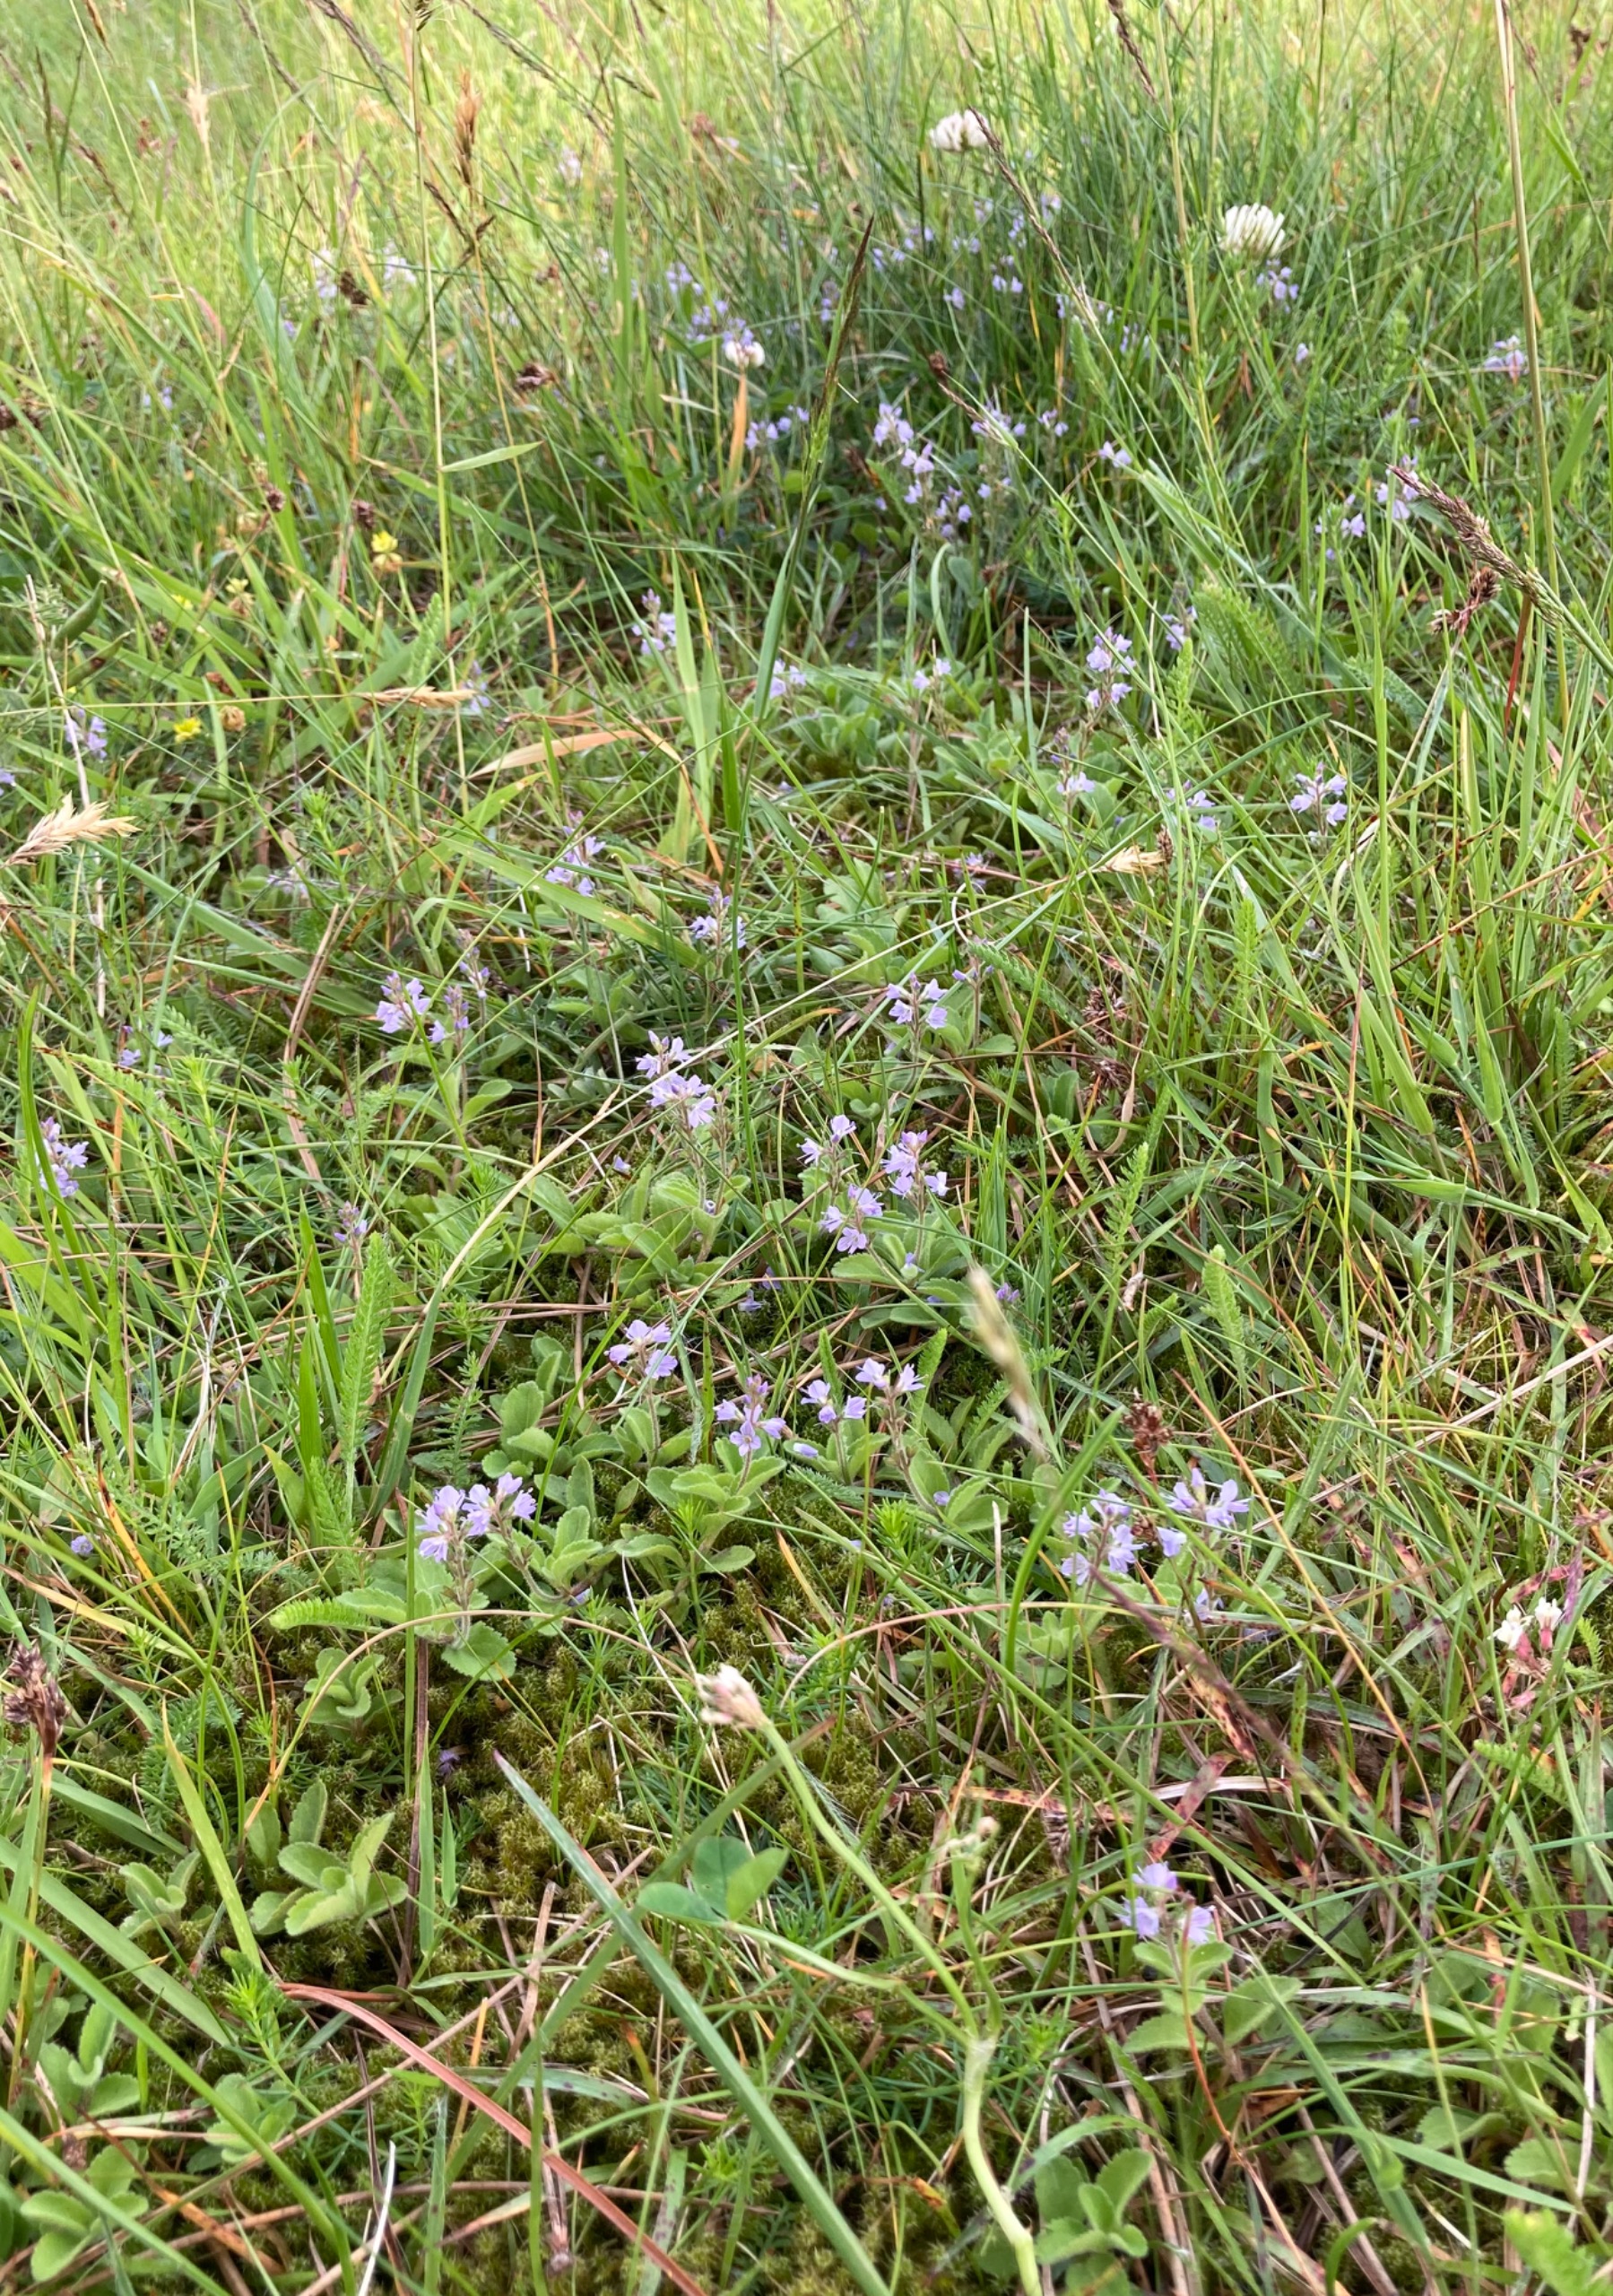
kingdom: Plantae
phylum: Tracheophyta
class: Magnoliopsida
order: Lamiales
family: Plantaginaceae
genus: Veronica
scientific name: Veronica officinalis
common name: Læge-ærenpris
